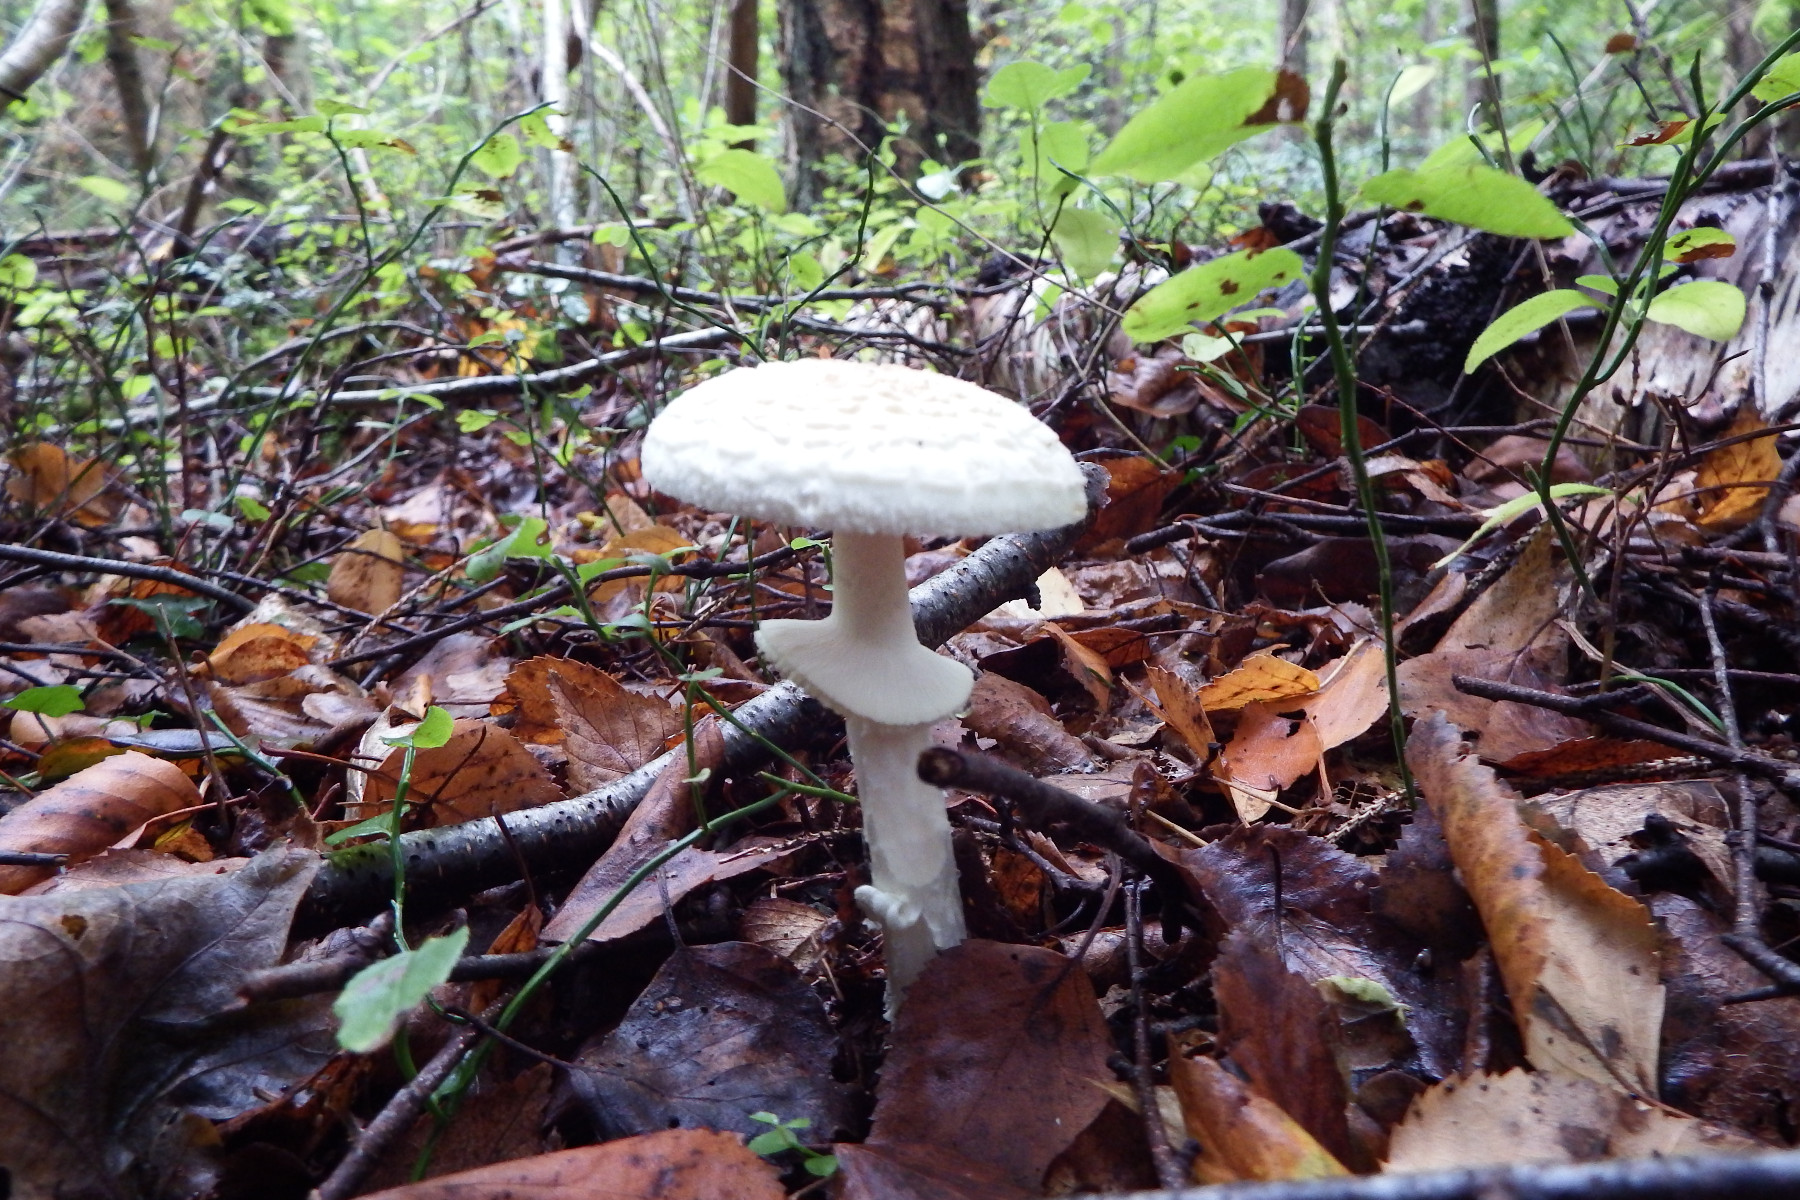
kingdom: Fungi
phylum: Basidiomycota
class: Agaricomycetes
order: Agaricales
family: Amanitaceae
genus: Amanita
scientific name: Amanita citrina
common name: kugleknoldet fluesvamp
